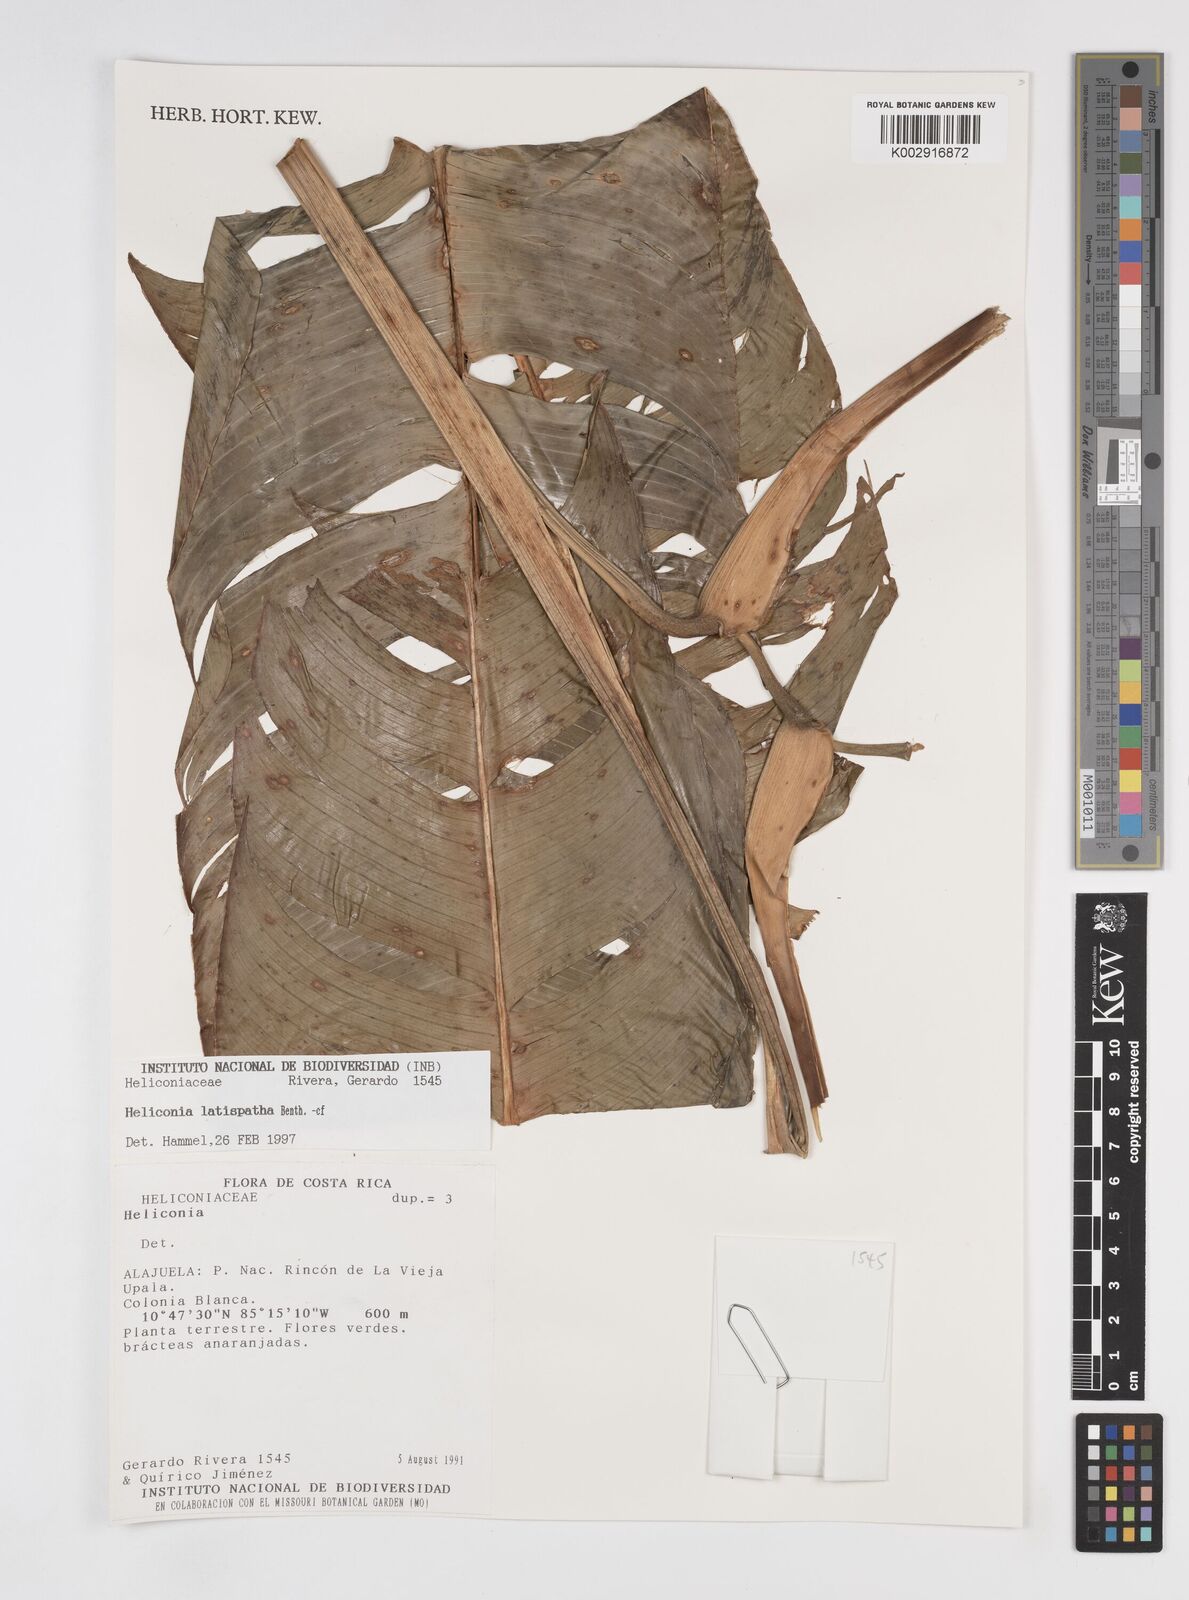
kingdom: Plantae
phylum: Tracheophyta
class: Liliopsida
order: Zingiberales
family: Heliconiaceae
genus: Heliconia
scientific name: Heliconia latispatha
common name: Expanded lobsterclaw
